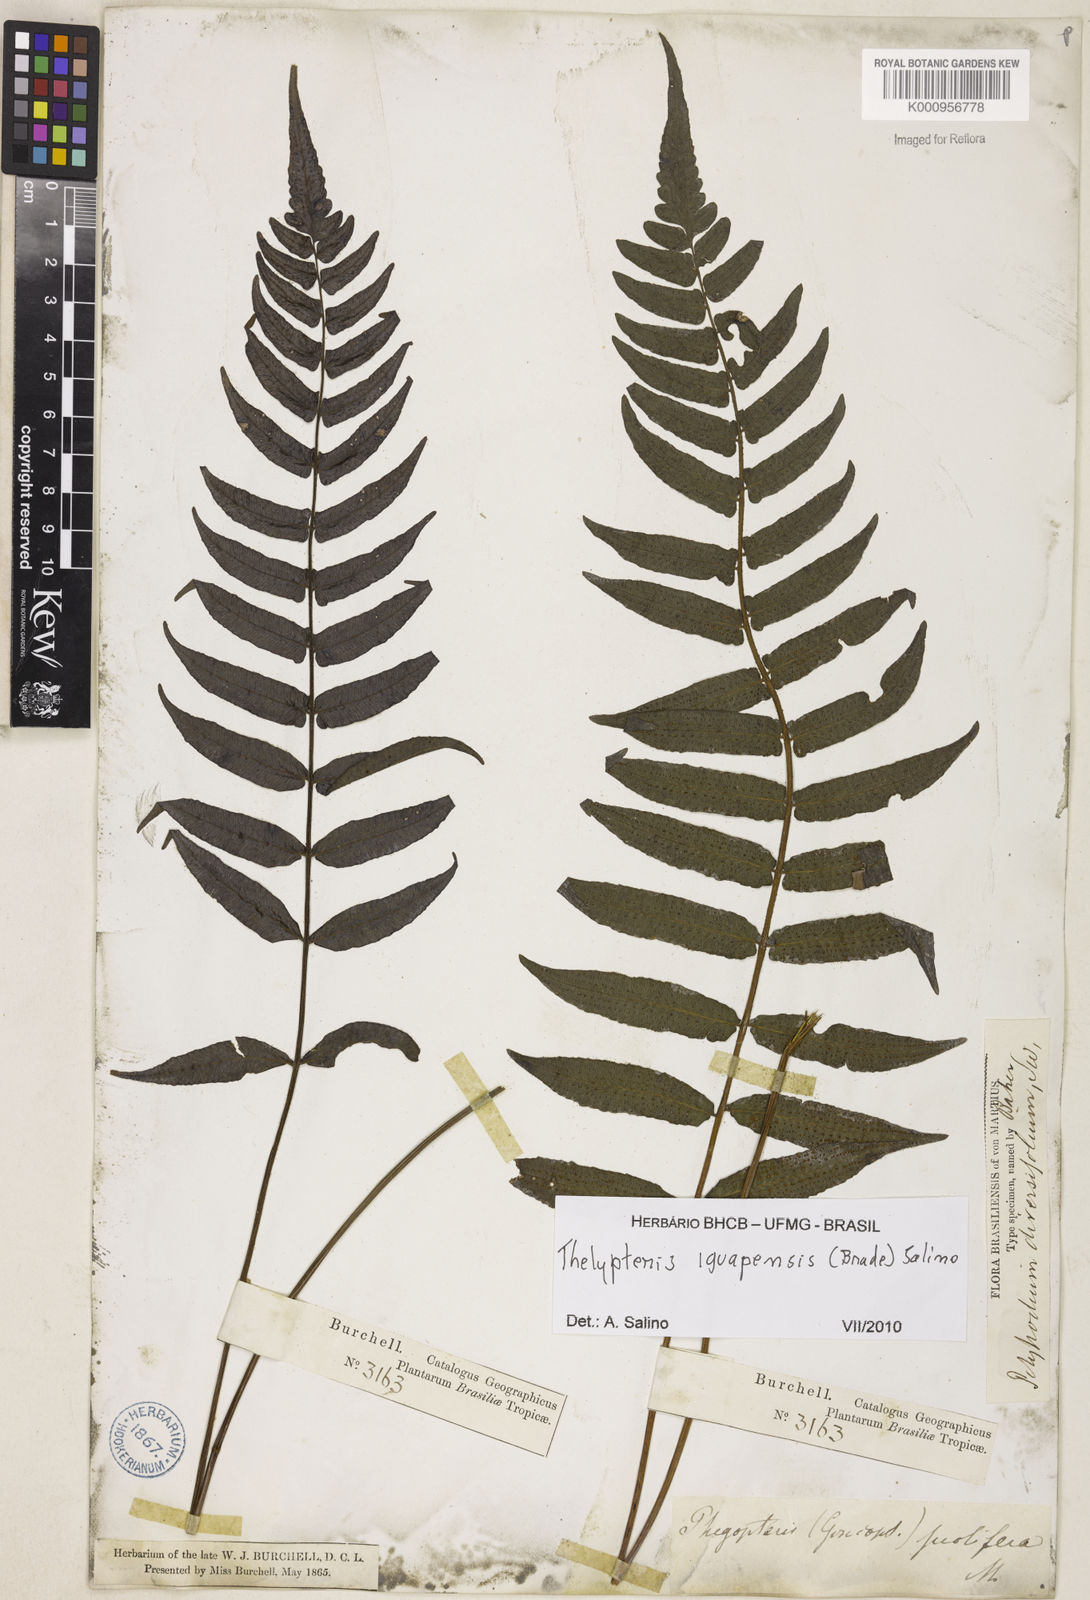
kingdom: Plantae
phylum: Tracheophyta
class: Polypodiopsida
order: Polypodiales
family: Thelypteridaceae
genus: Goniopteris
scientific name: Goniopteris iguapensis
